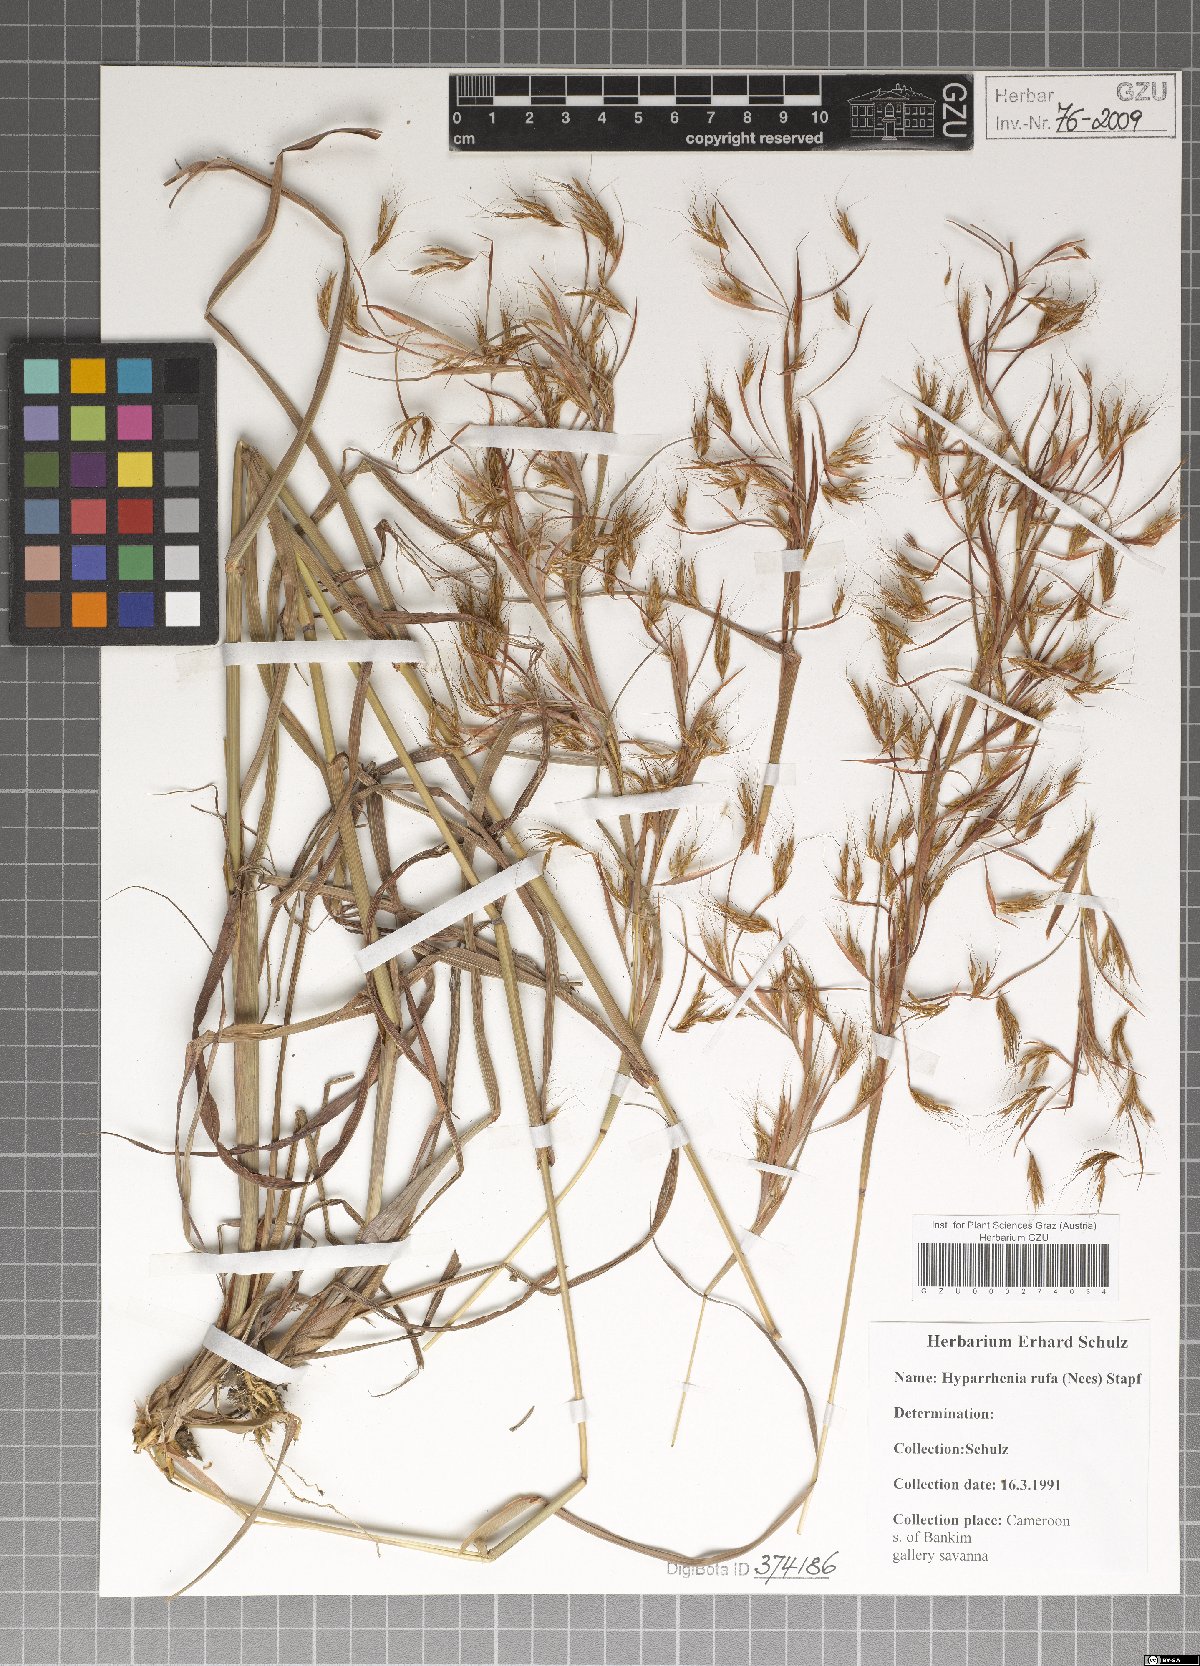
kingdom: Plantae
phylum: Tracheophyta
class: Liliopsida
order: Poales
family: Poaceae
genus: Hyparrhenia
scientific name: Hyparrhenia rufa
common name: Jaraguagrass
